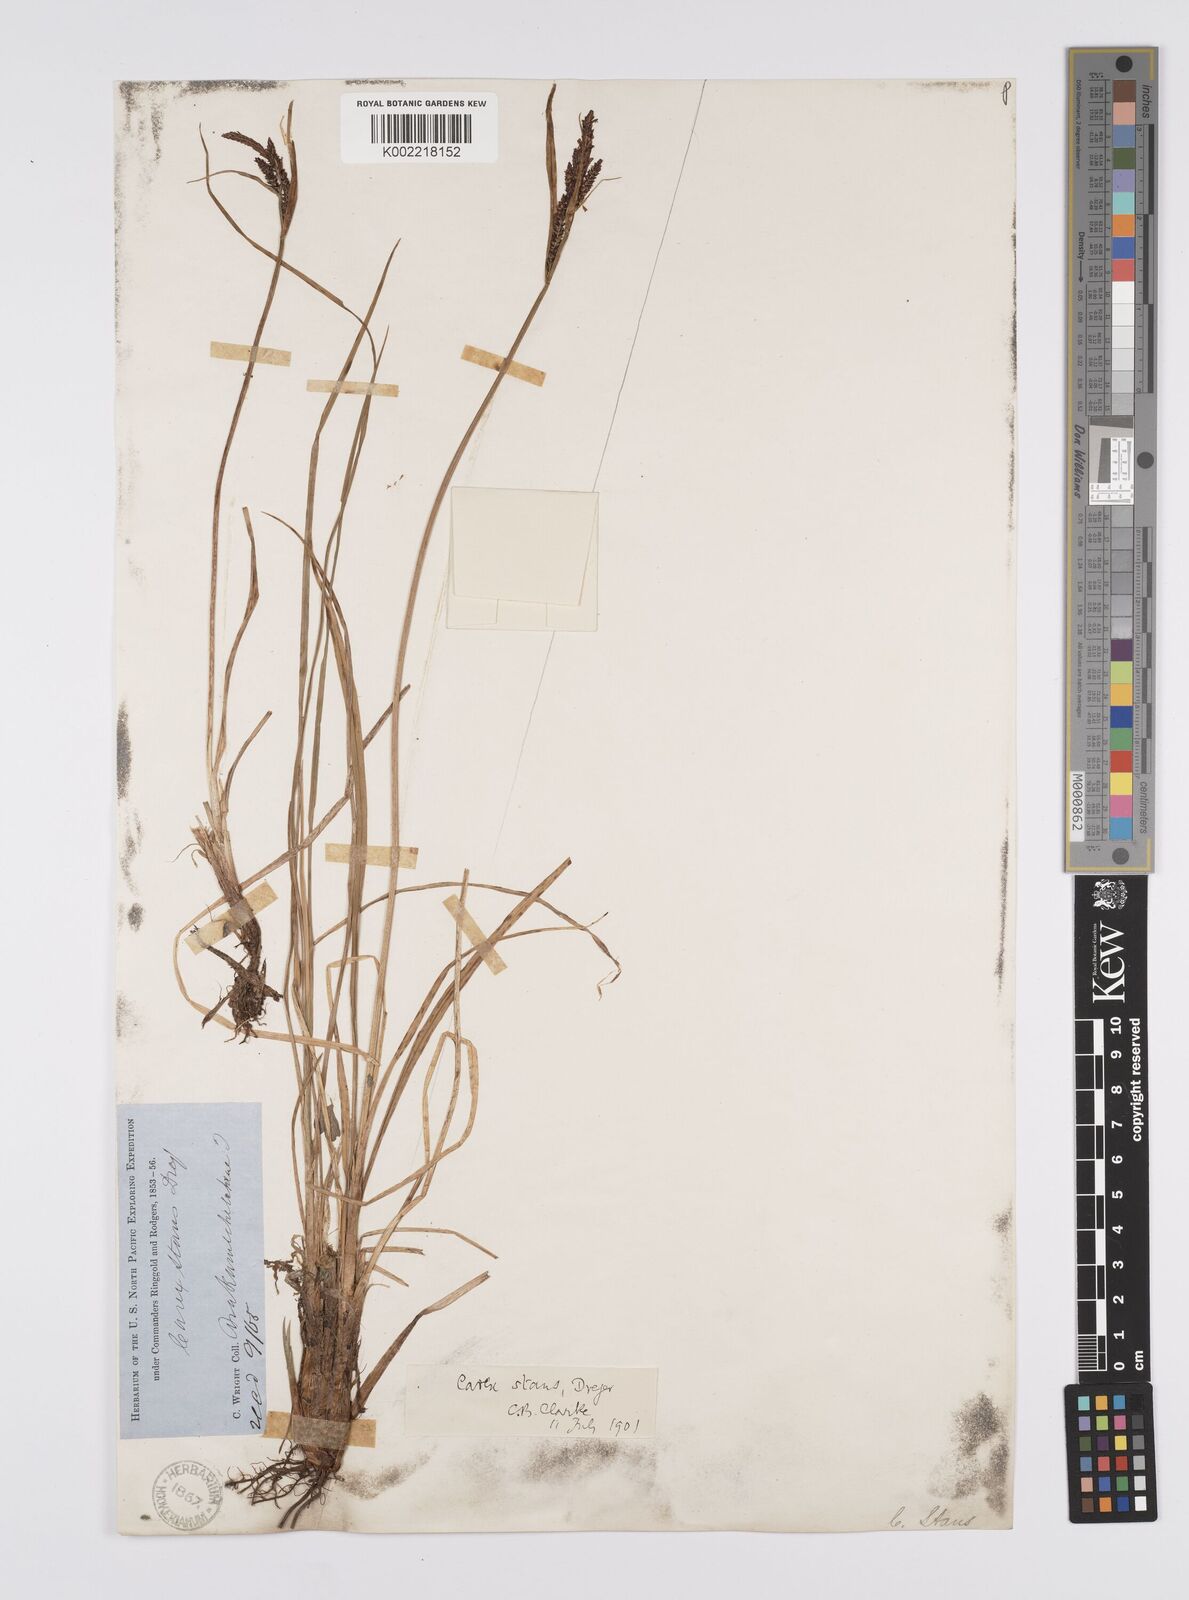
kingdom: Plantae
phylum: Tracheophyta
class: Liliopsida
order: Poales
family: Cyperaceae
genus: Carex
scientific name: Carex microsaccus
